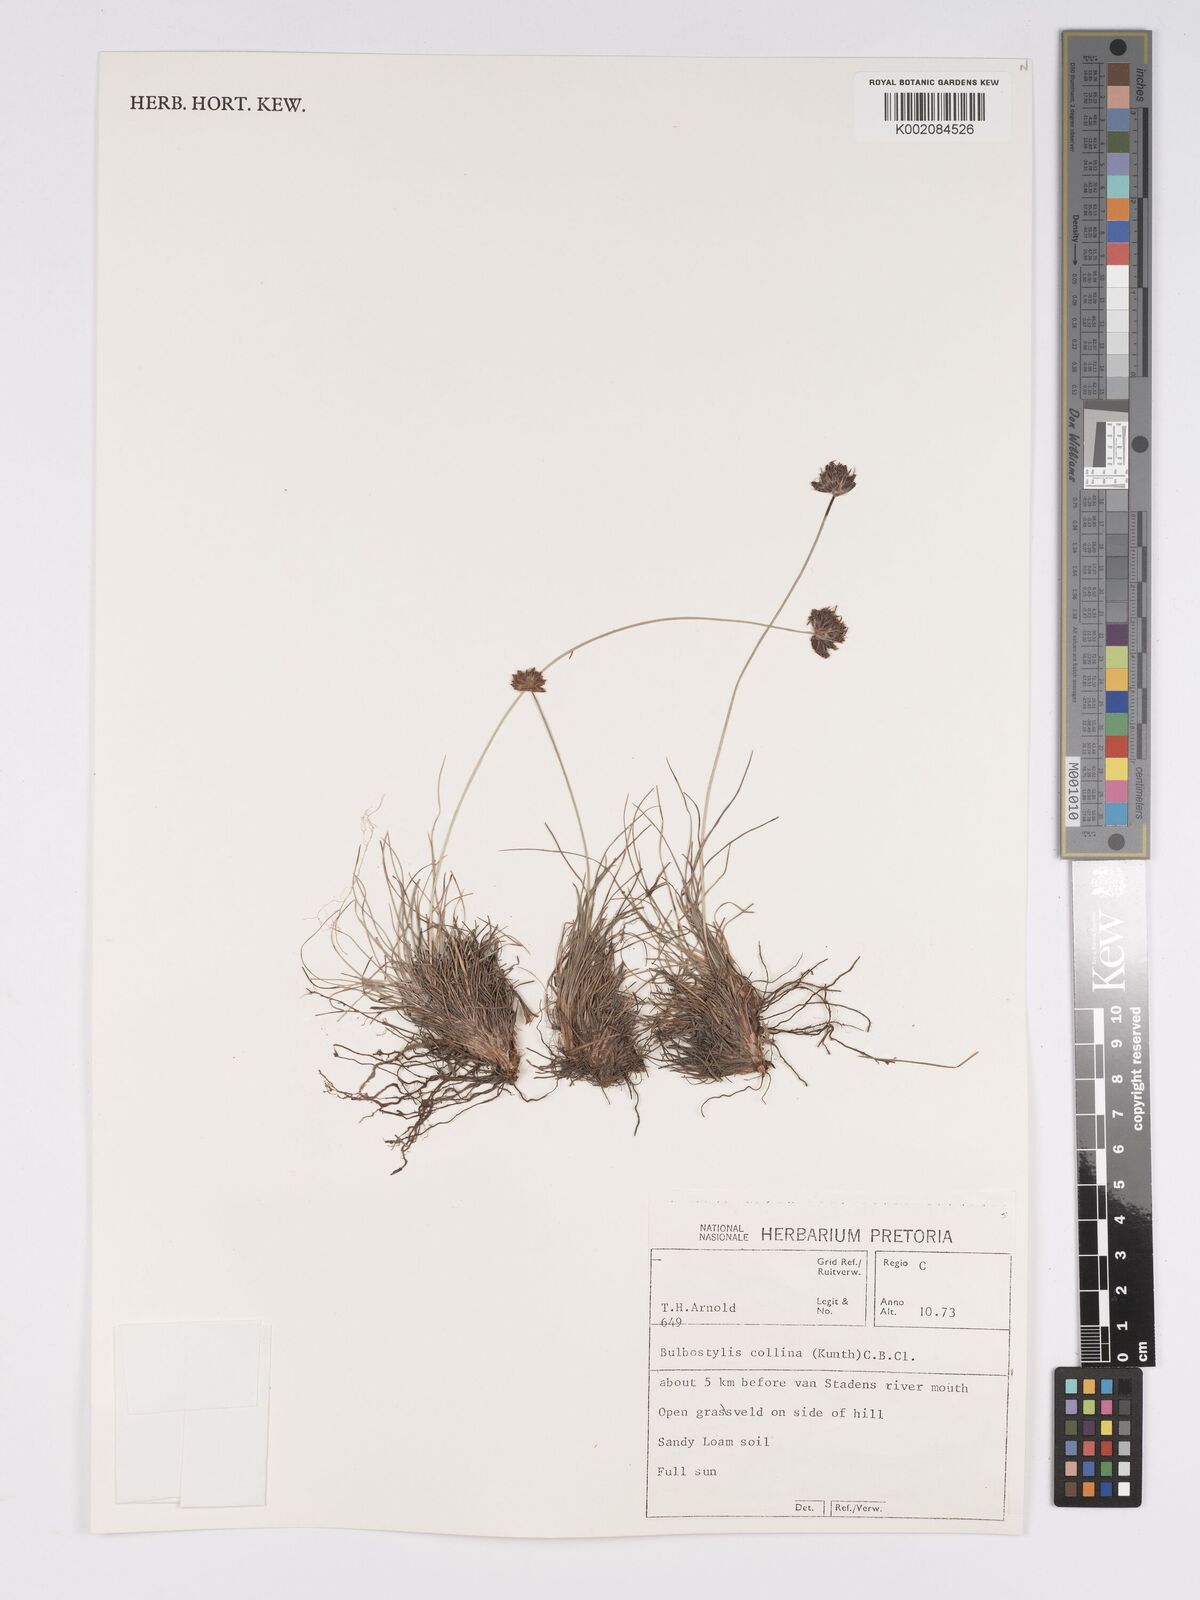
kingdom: Plantae
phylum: Tracheophyta
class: Liliopsida
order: Poales
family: Cyperaceae
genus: Bulbostylis
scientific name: Bulbostylis contexta
